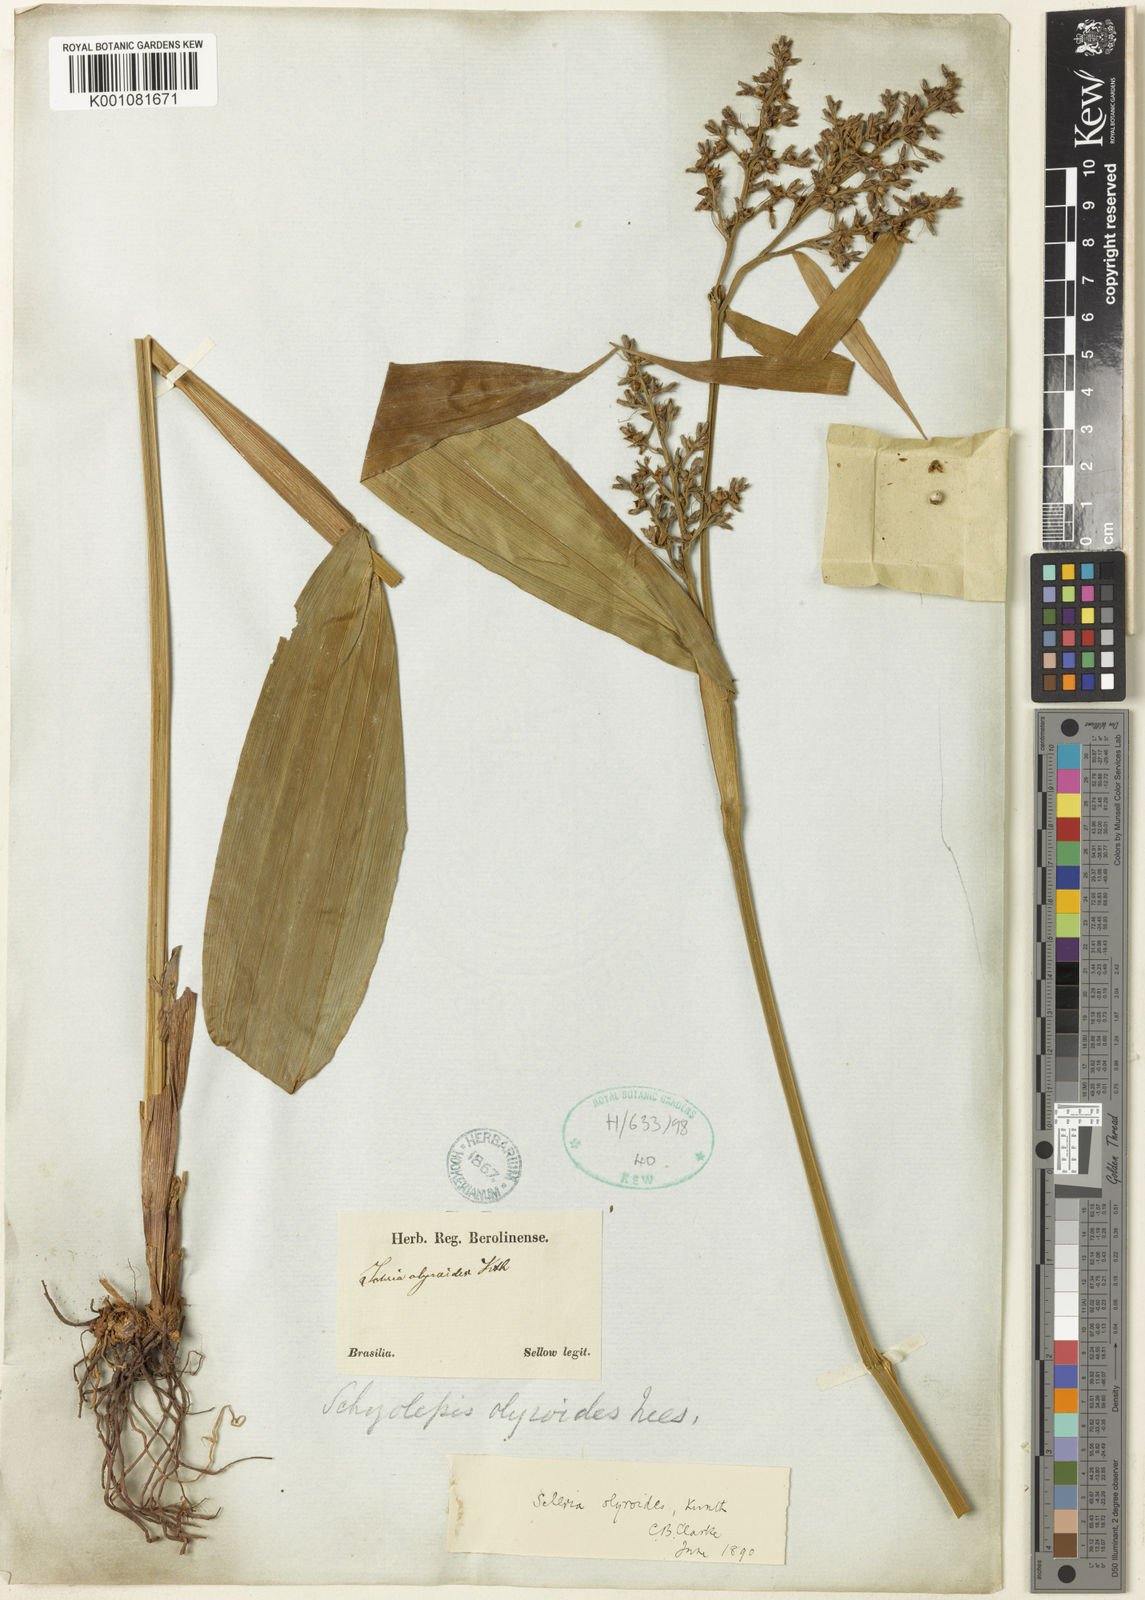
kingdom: Plantae
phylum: Tracheophyta
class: Liliopsida
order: Poales
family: Cyperaceae
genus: Scleria
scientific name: Scleria latifolia
